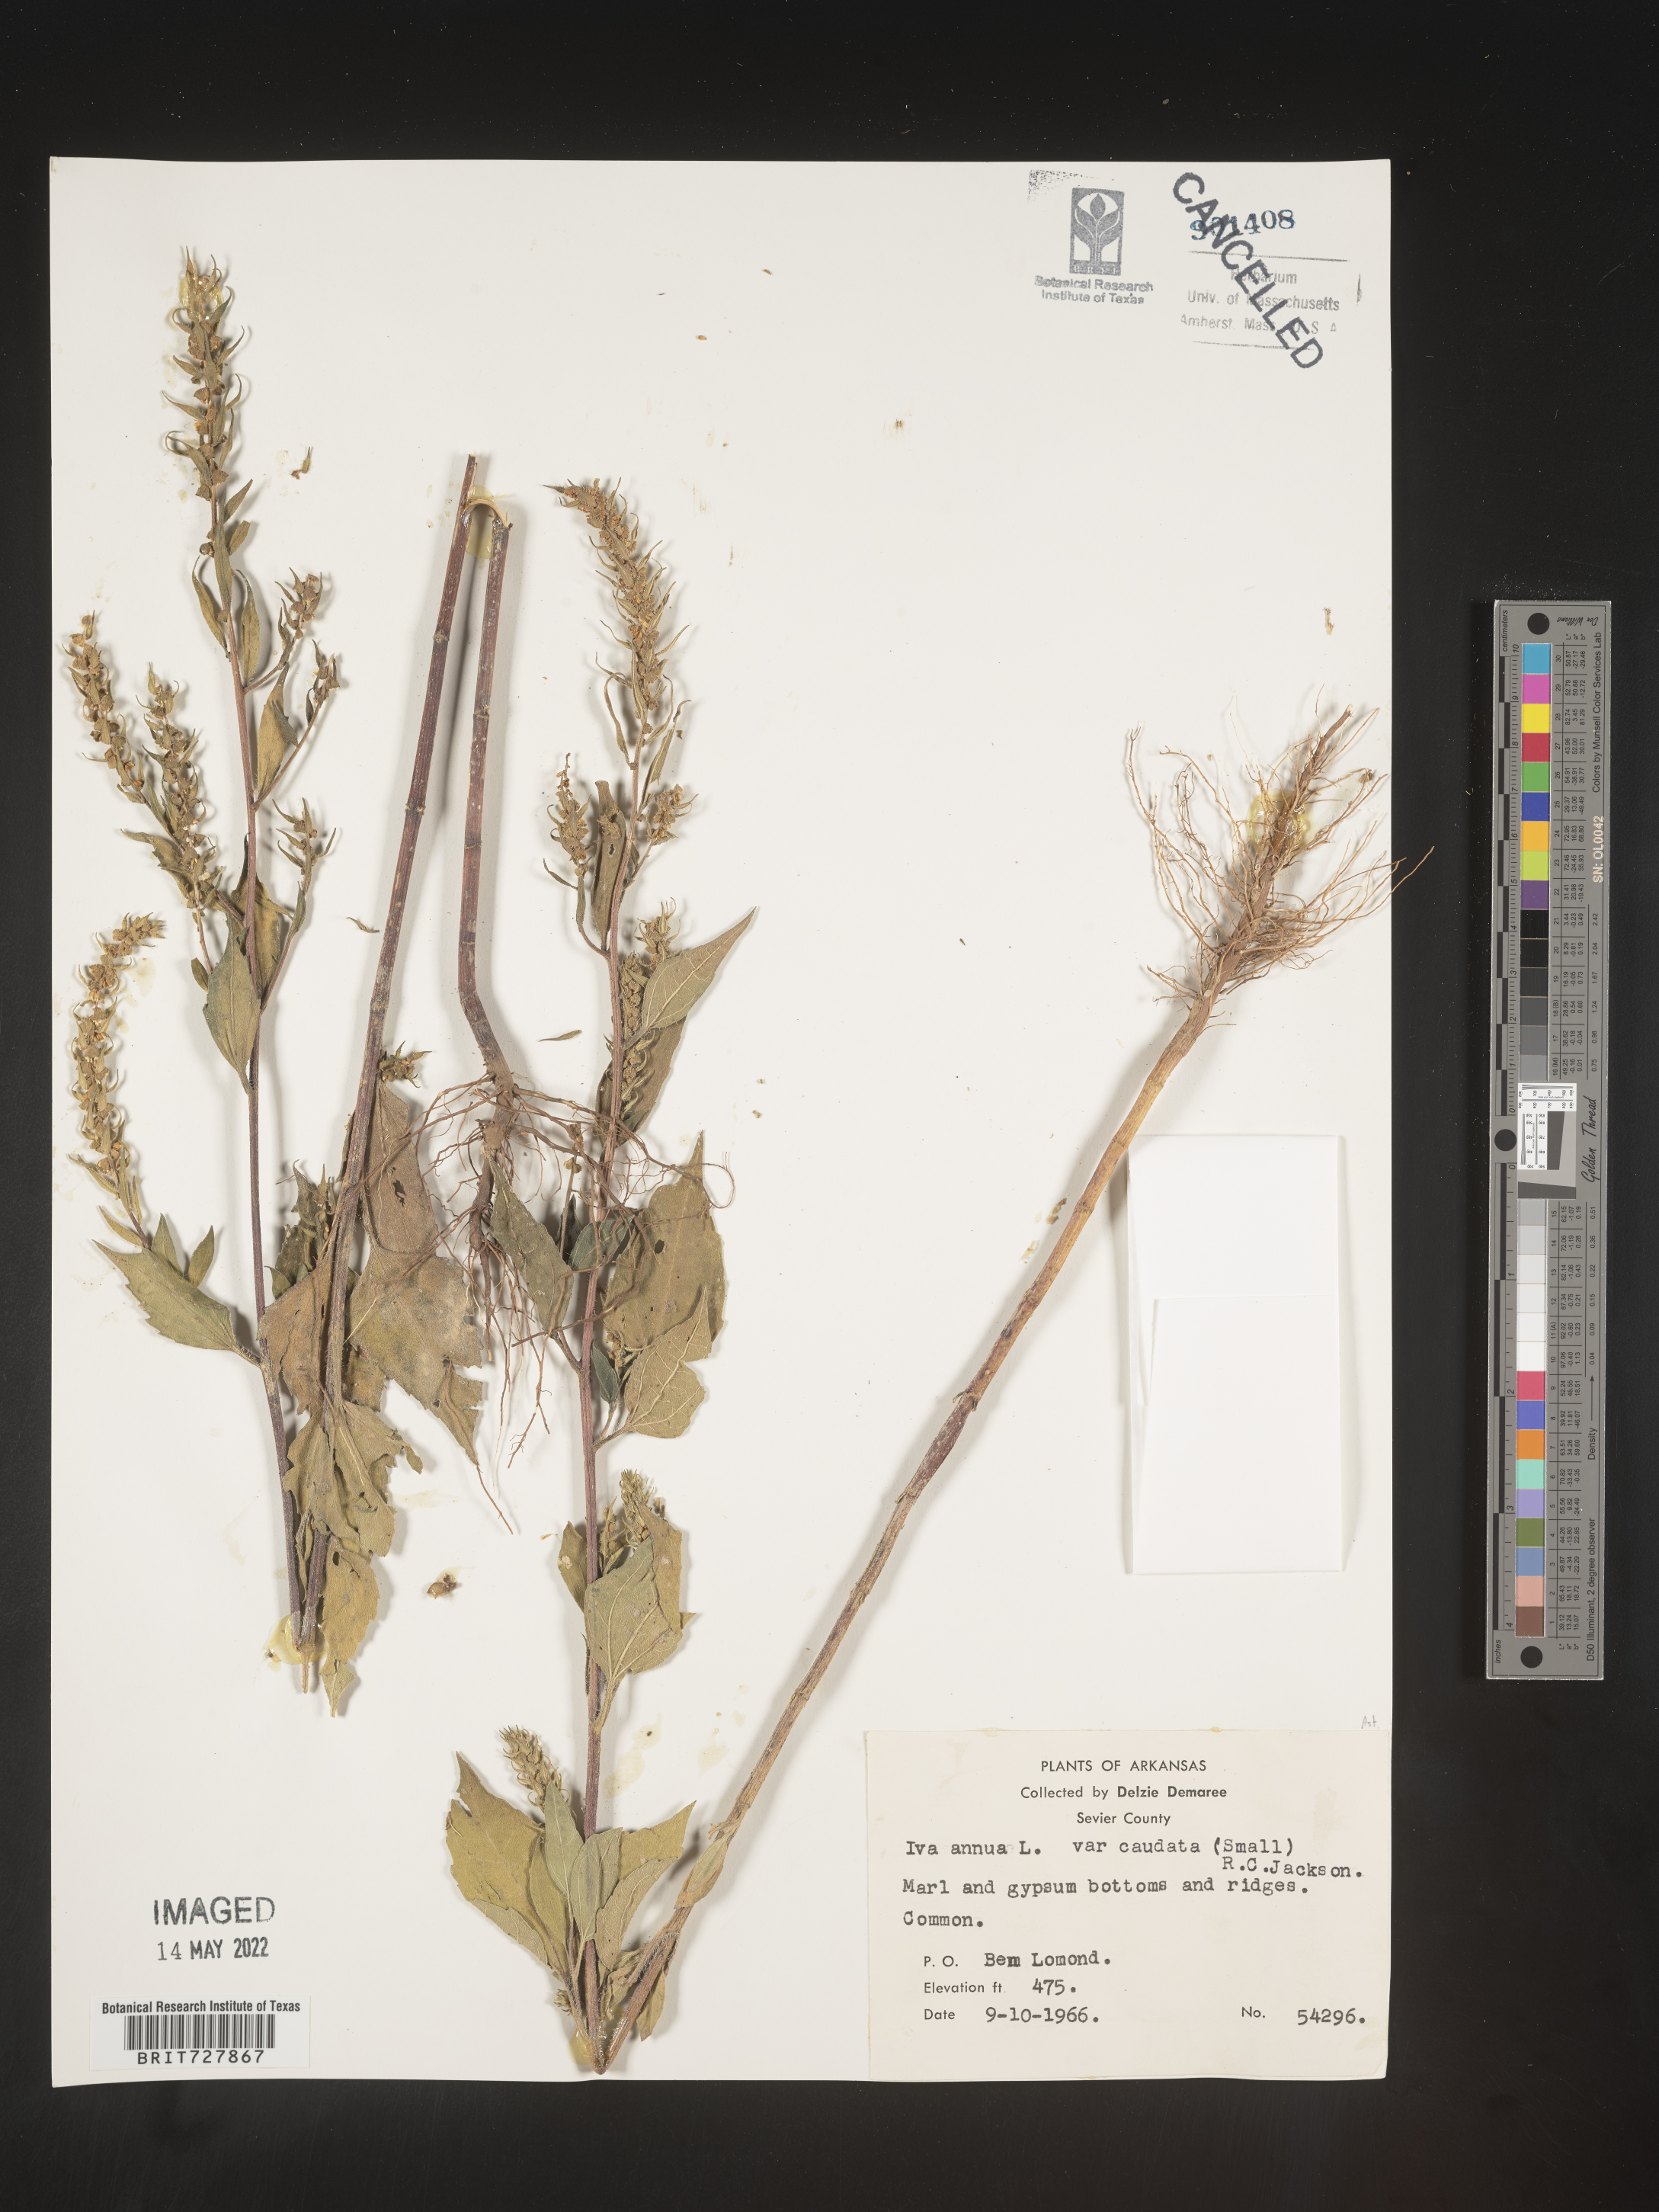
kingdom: Plantae
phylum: Tracheophyta
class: Magnoliopsida
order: Asterales
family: Asteraceae
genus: Iva
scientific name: Iva annua
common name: Marsh-elder
